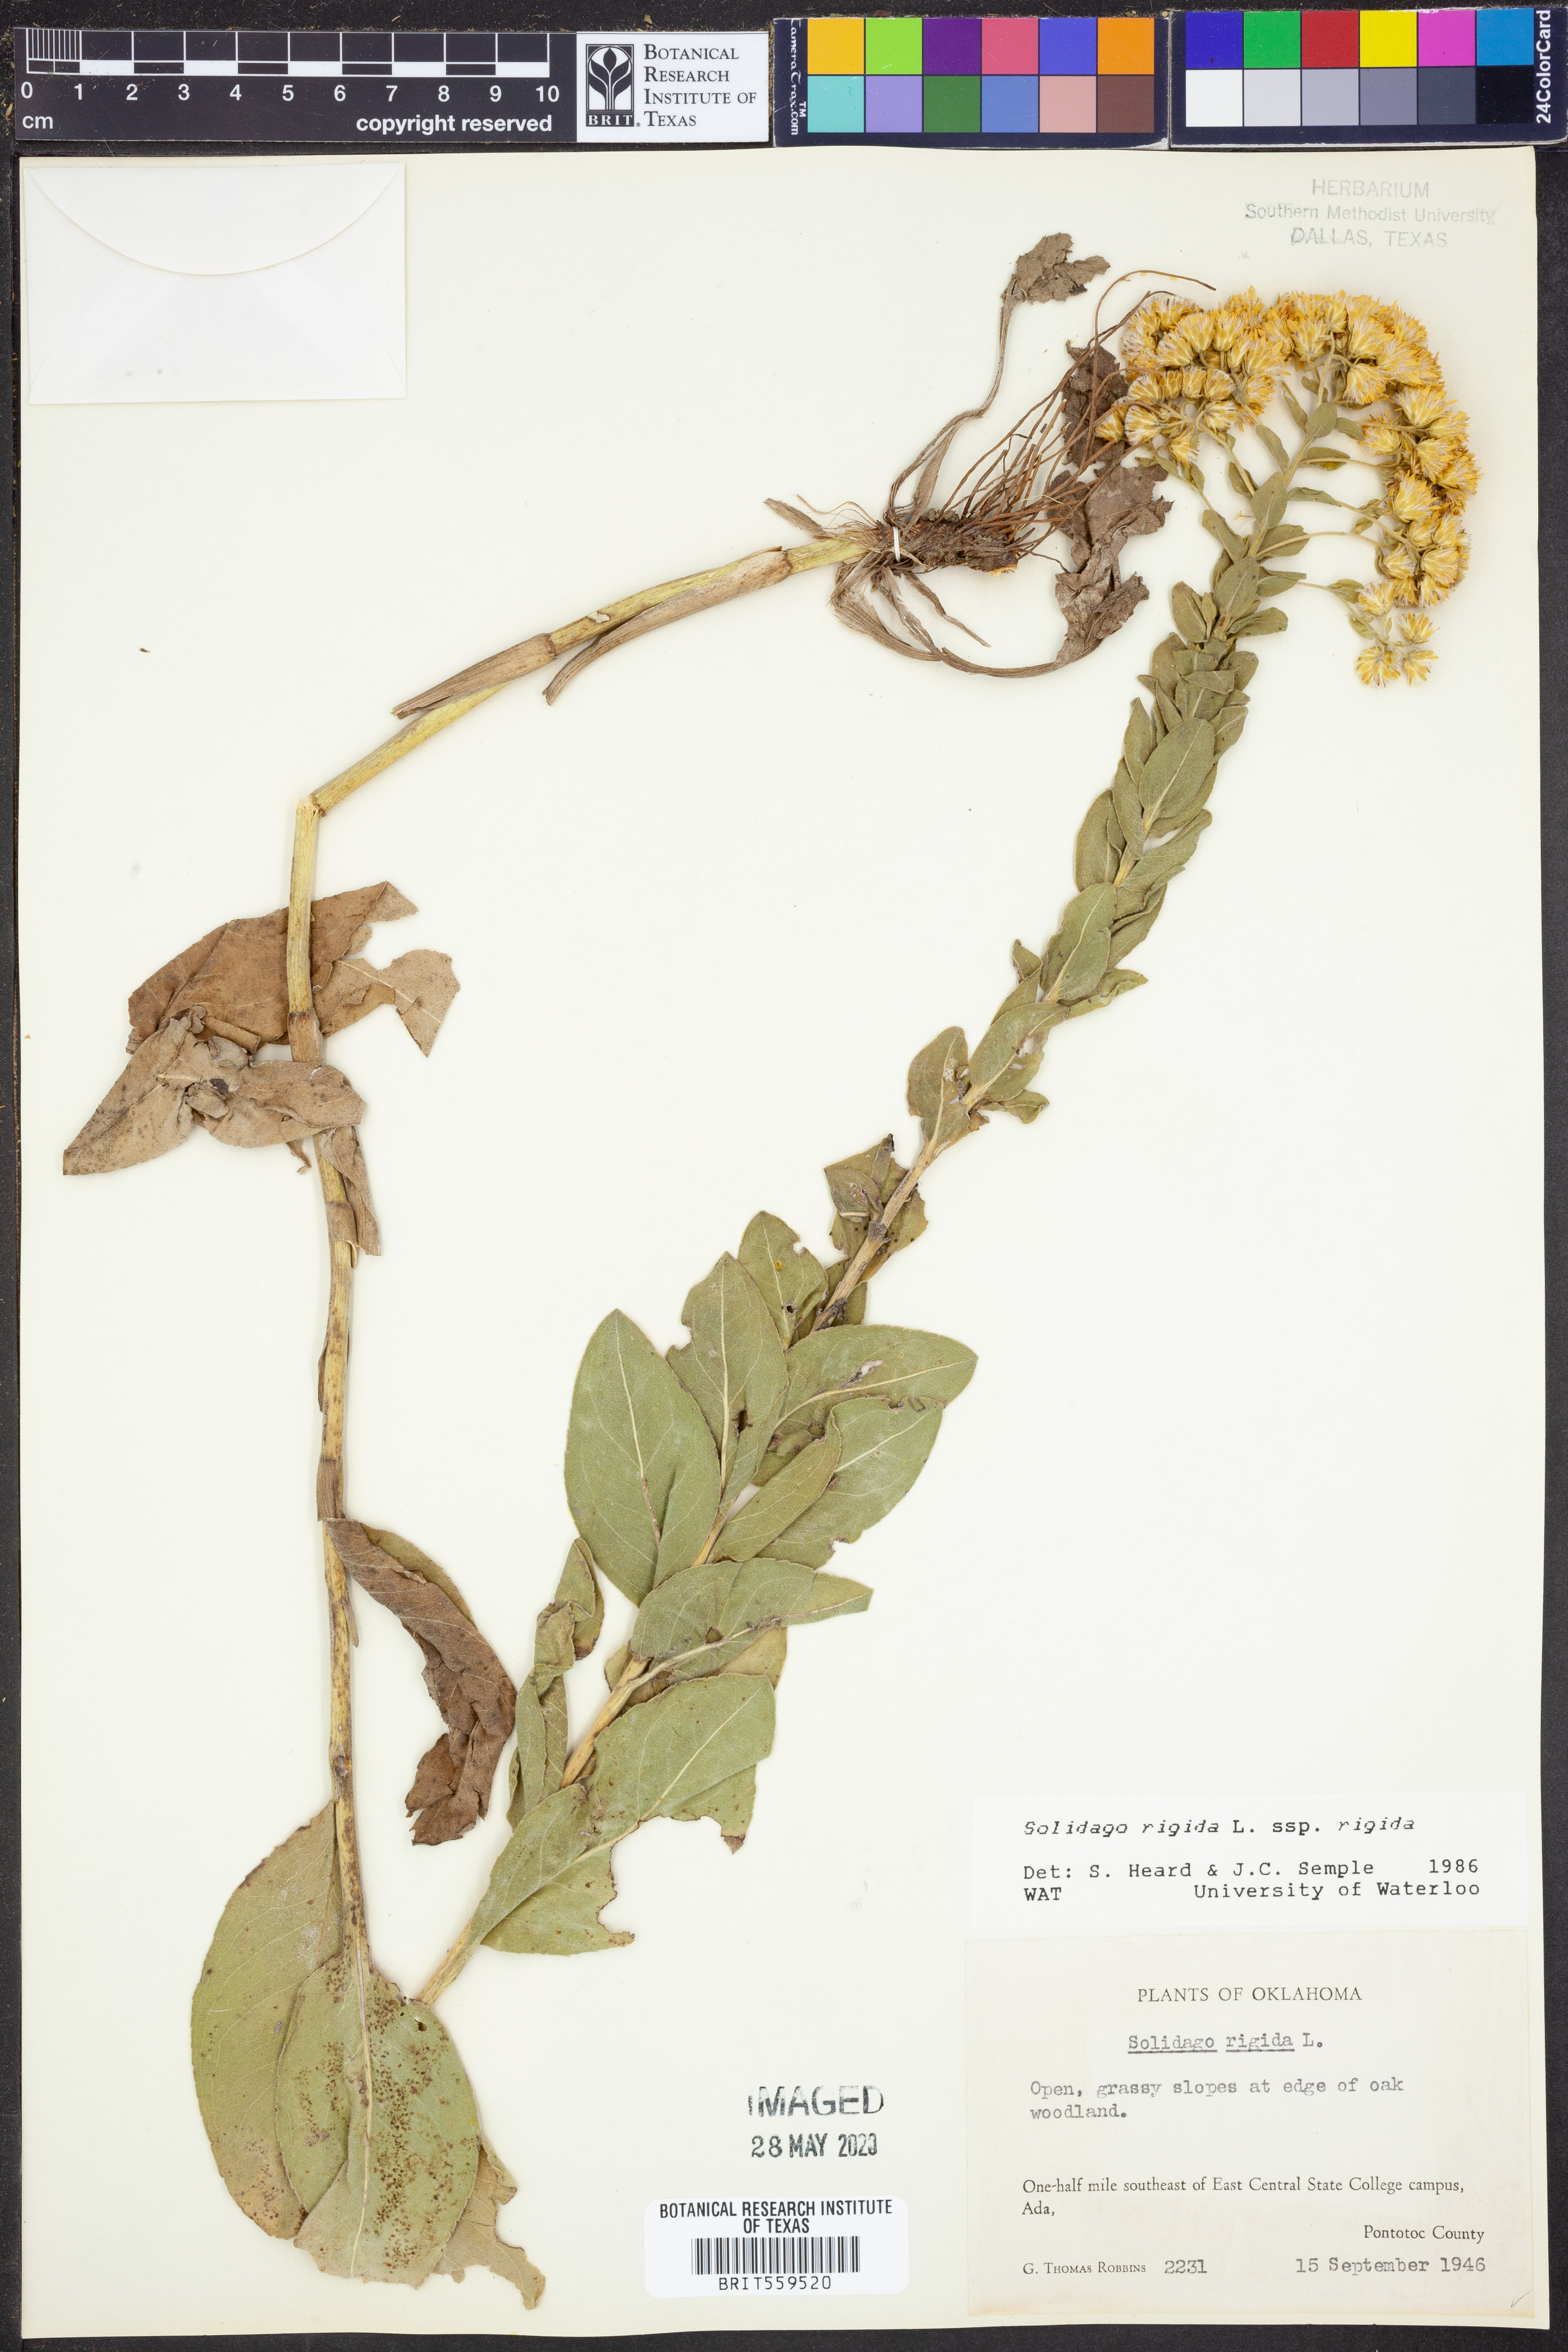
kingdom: Plantae
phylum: Tracheophyta
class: Magnoliopsida
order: Asterales
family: Asteraceae
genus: Solidago
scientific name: Solidago rigida
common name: Rigid goldenrod
